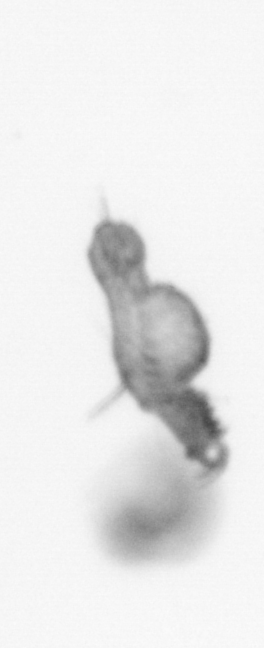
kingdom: Animalia
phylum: Annelida
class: Polychaeta
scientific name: Polychaeta
